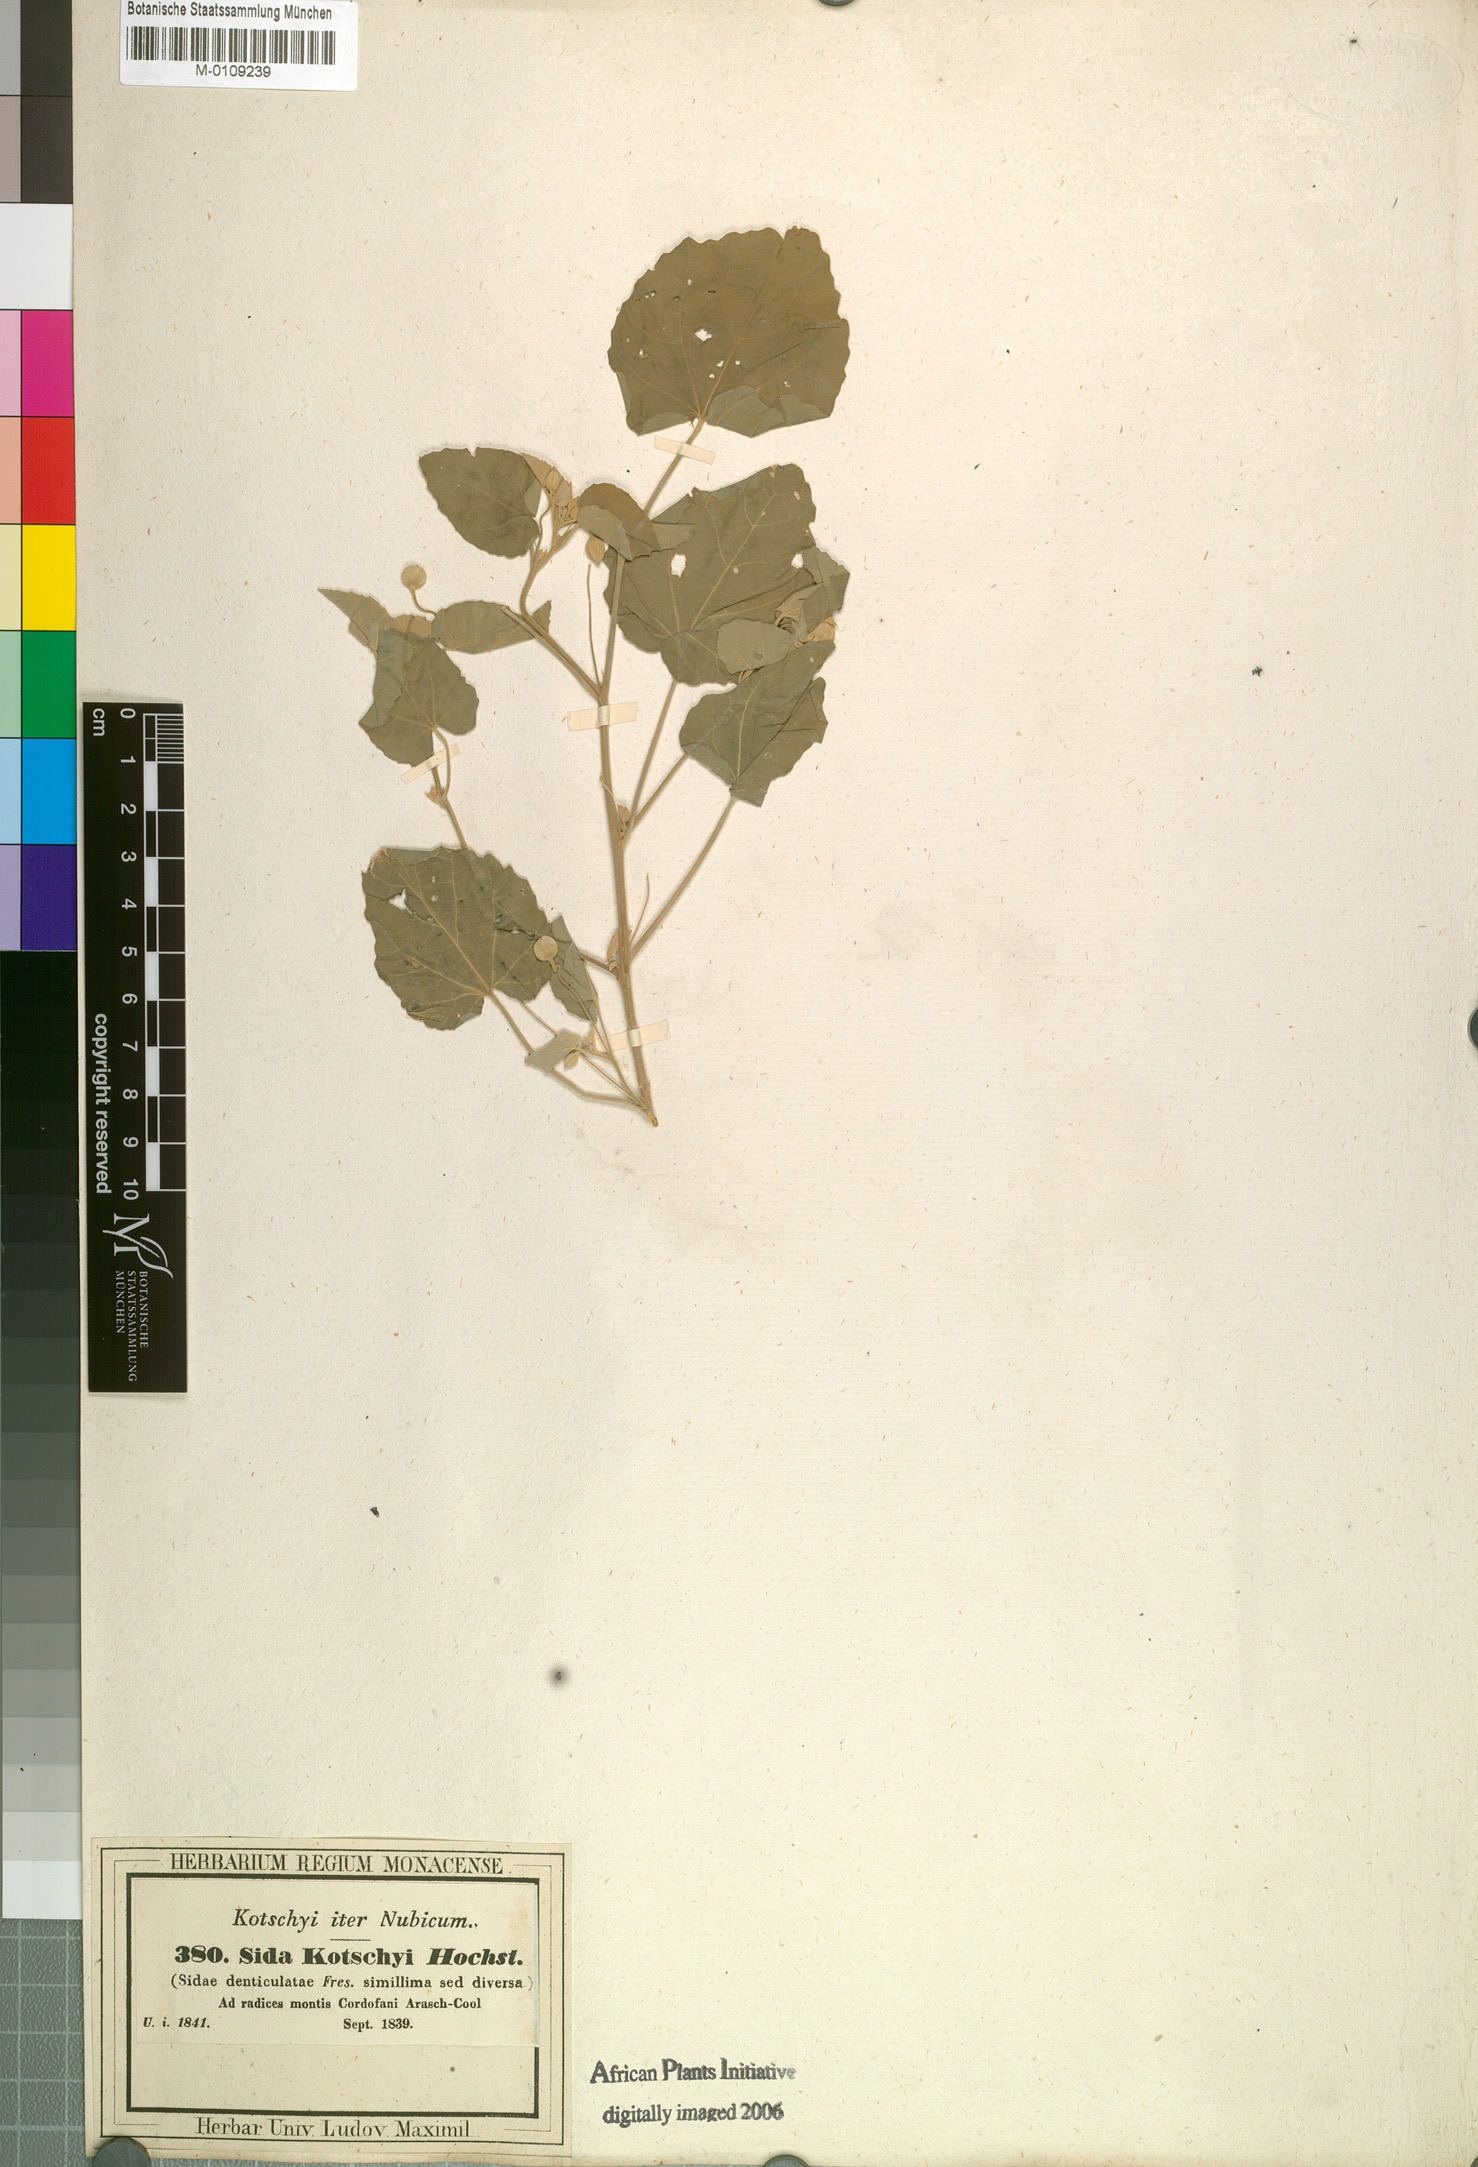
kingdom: Plantae
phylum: Tracheophyta
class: Magnoliopsida
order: Malvales
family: Malvaceae
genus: Abutilon
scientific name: Abutilon fruticosum
